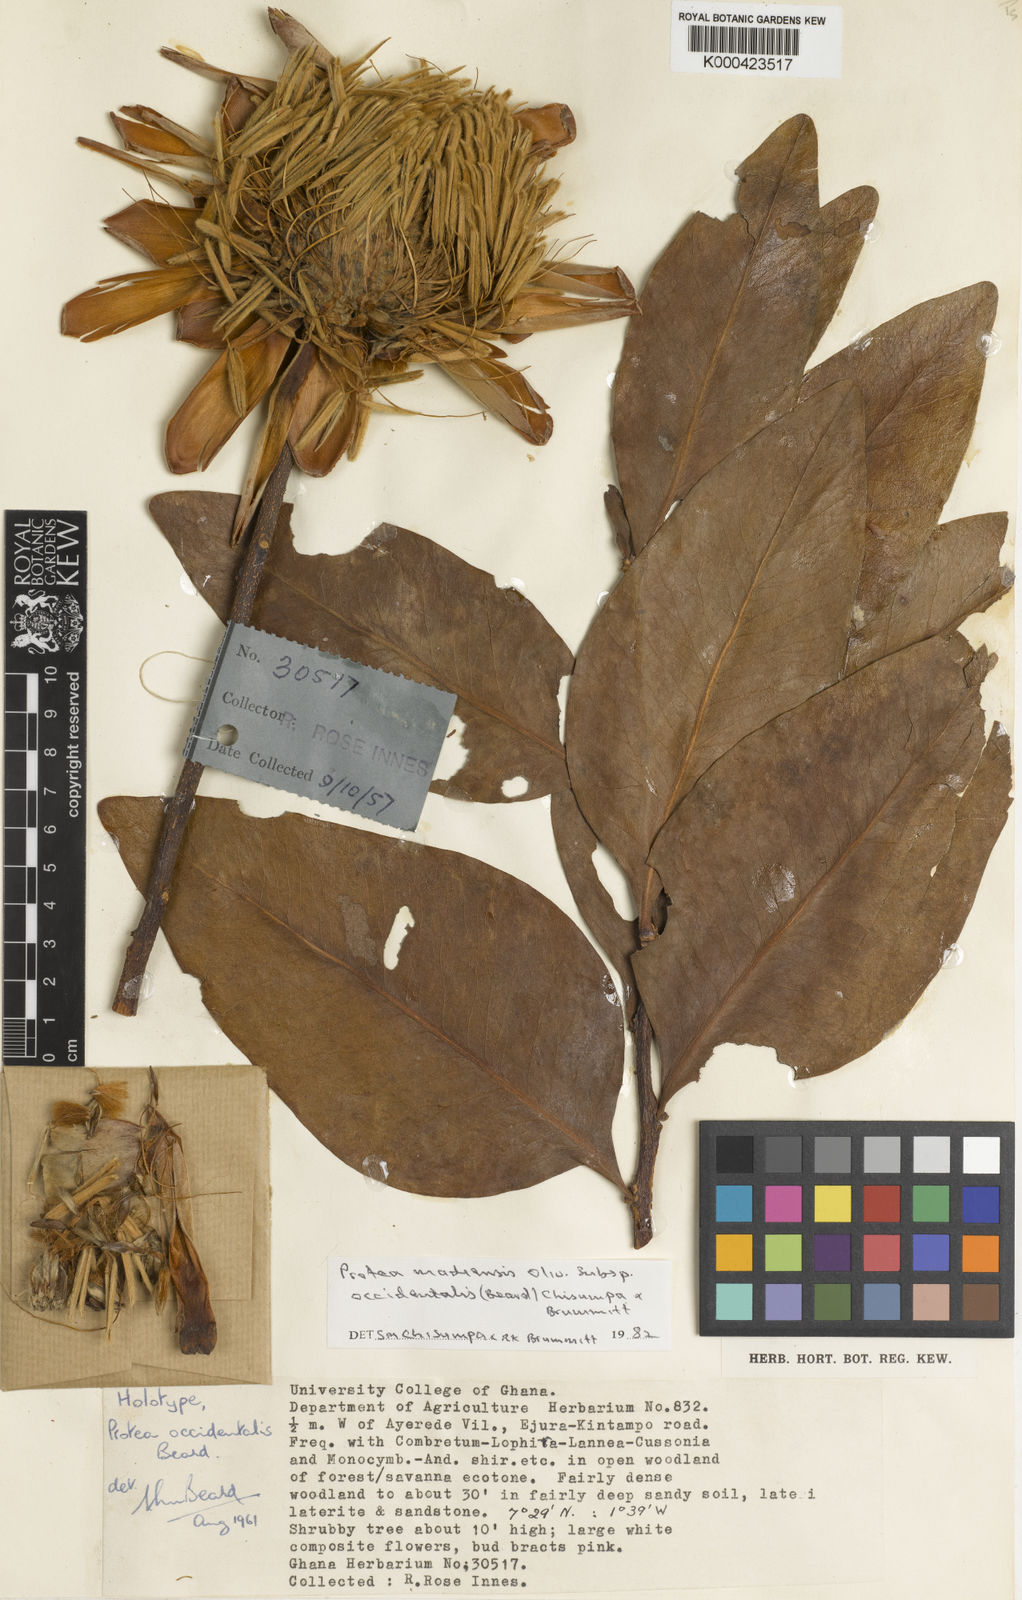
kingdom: Plantae
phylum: Tracheophyta
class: Magnoliopsida
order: Proteales
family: Proteaceae
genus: Protea
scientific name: Protea madiensis
